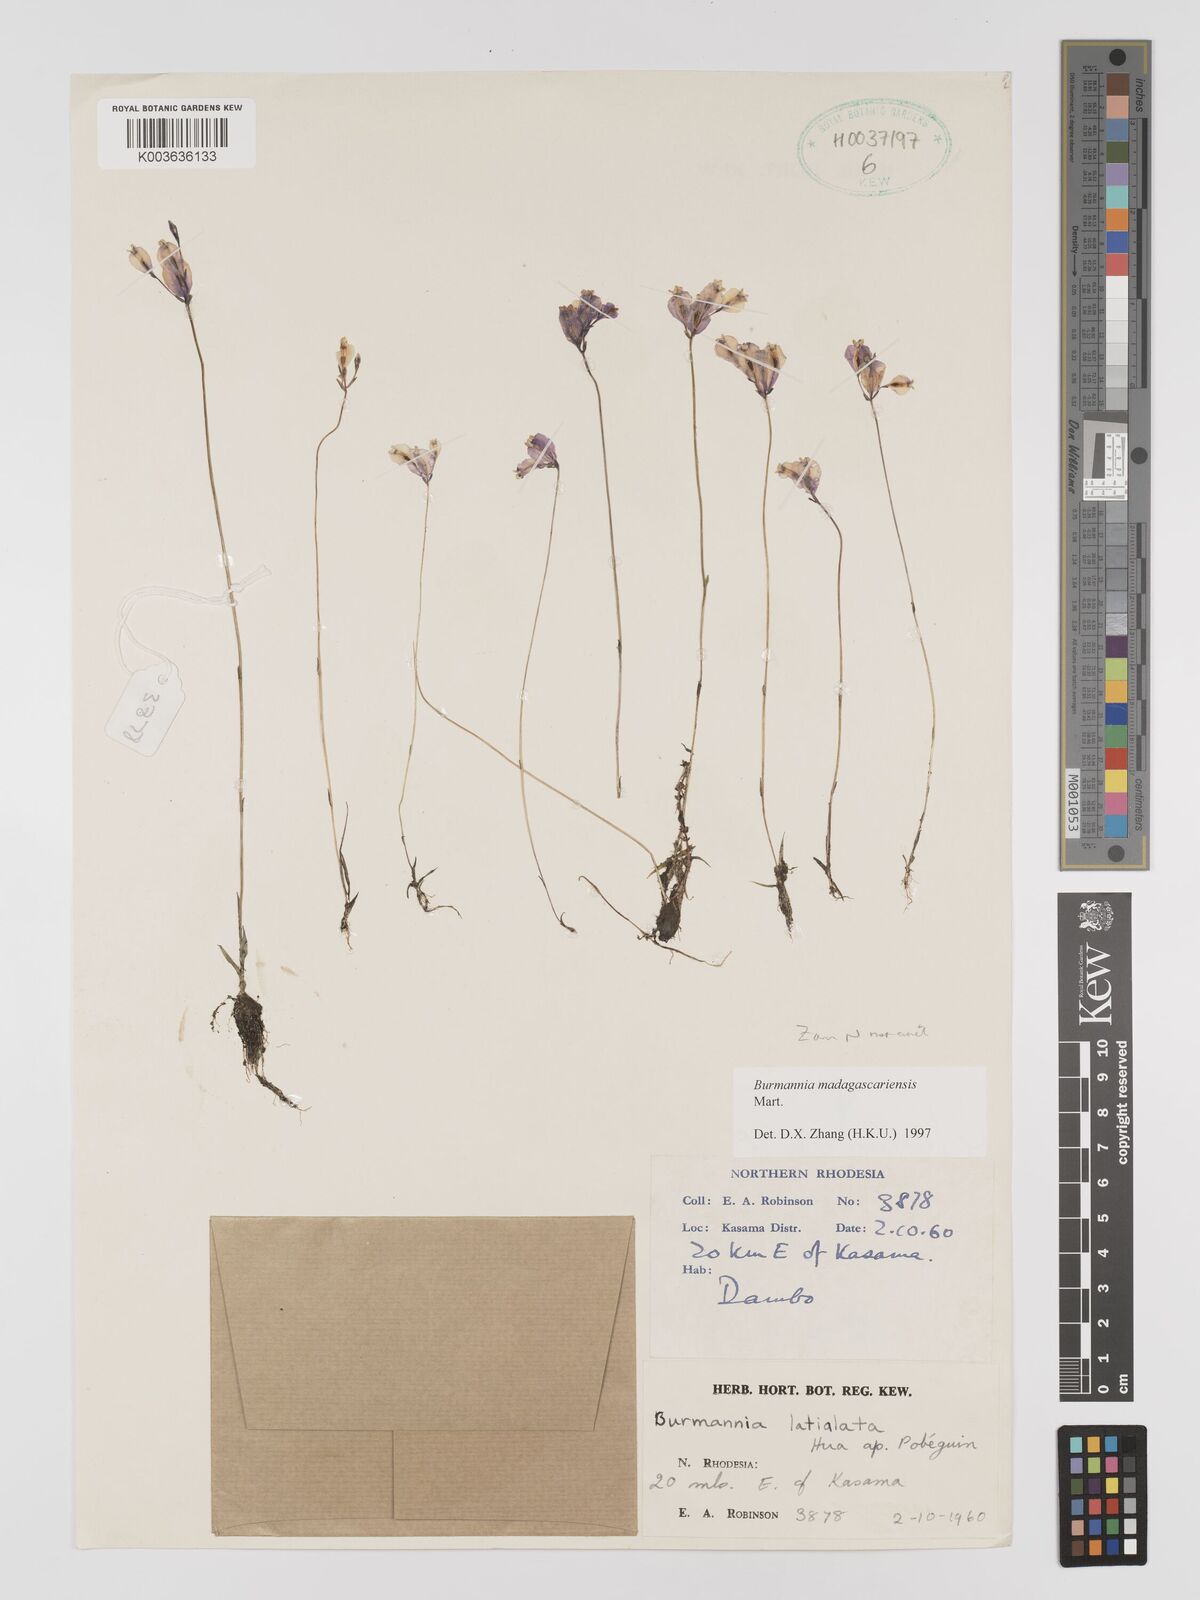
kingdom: Plantae
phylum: Tracheophyta
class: Liliopsida
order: Dioscoreales
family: Burmanniaceae
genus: Burmannia
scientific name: Burmannia madagascariensis
